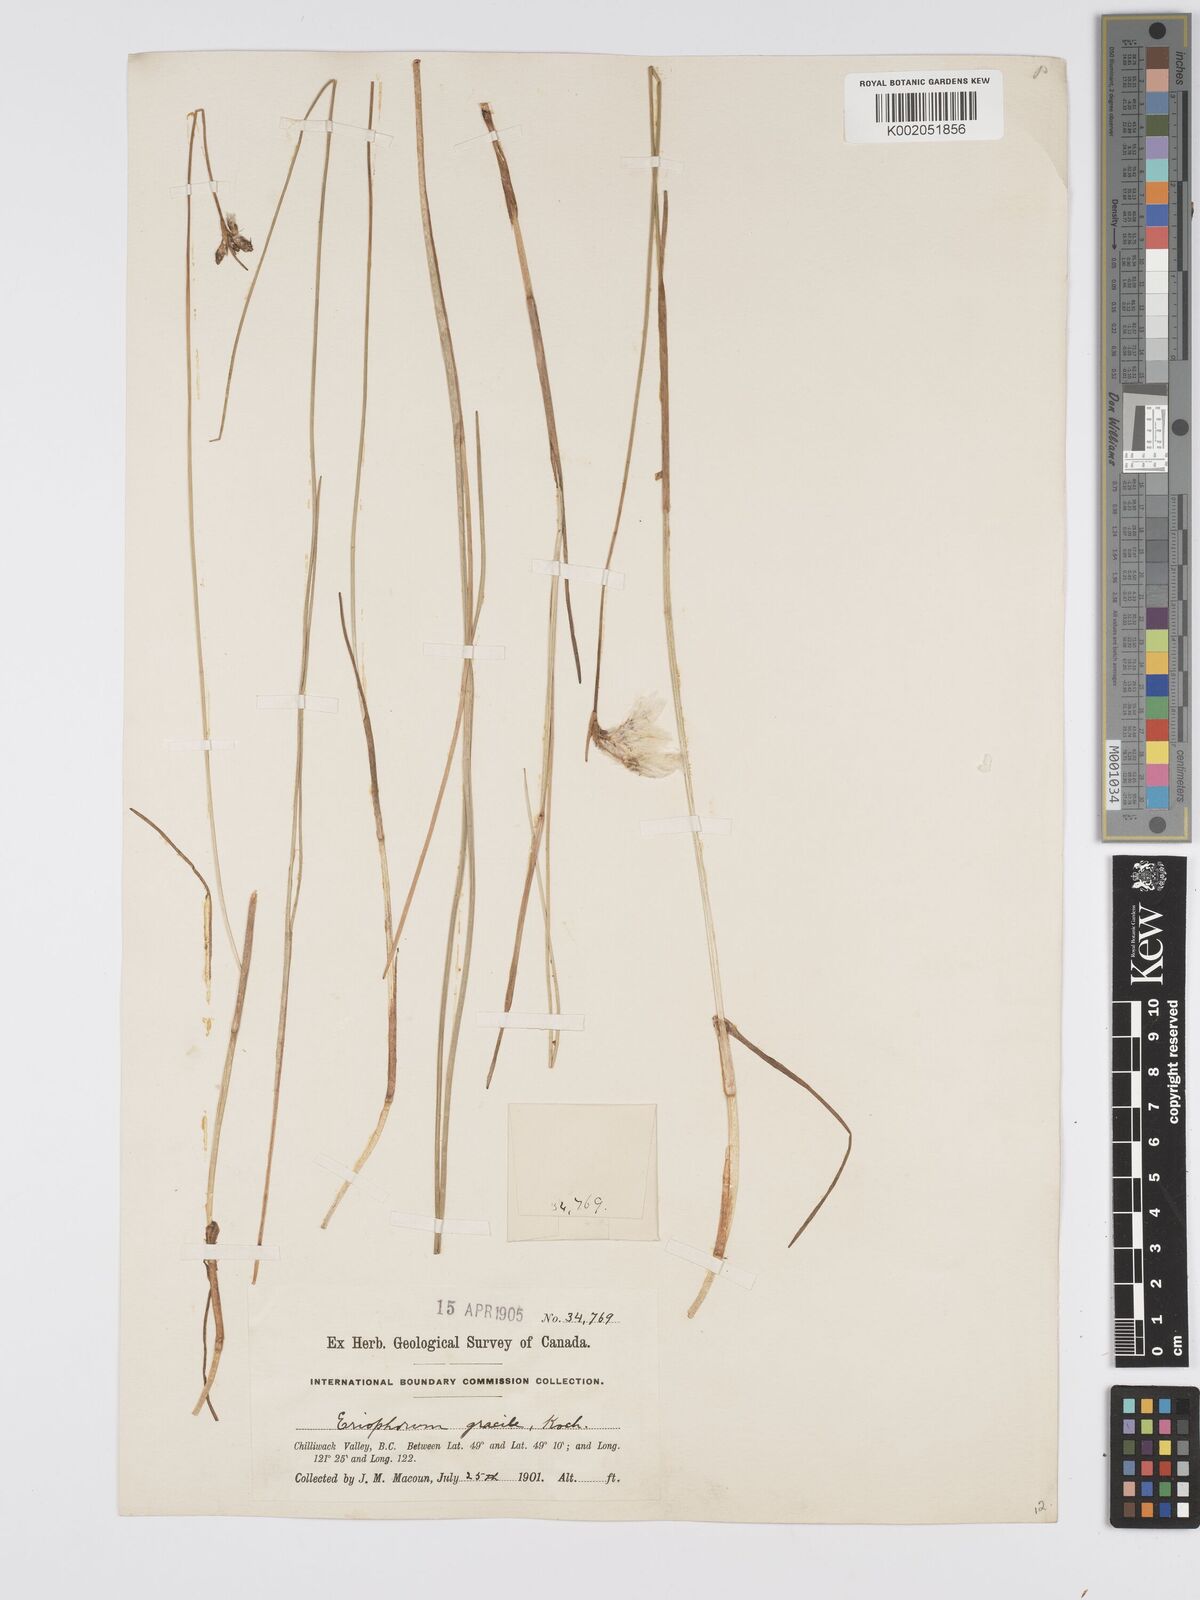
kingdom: Plantae
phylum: Tracheophyta
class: Liliopsida
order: Poales
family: Cyperaceae
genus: Eriophorum
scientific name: Eriophorum gracile
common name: Slender cottongrass
